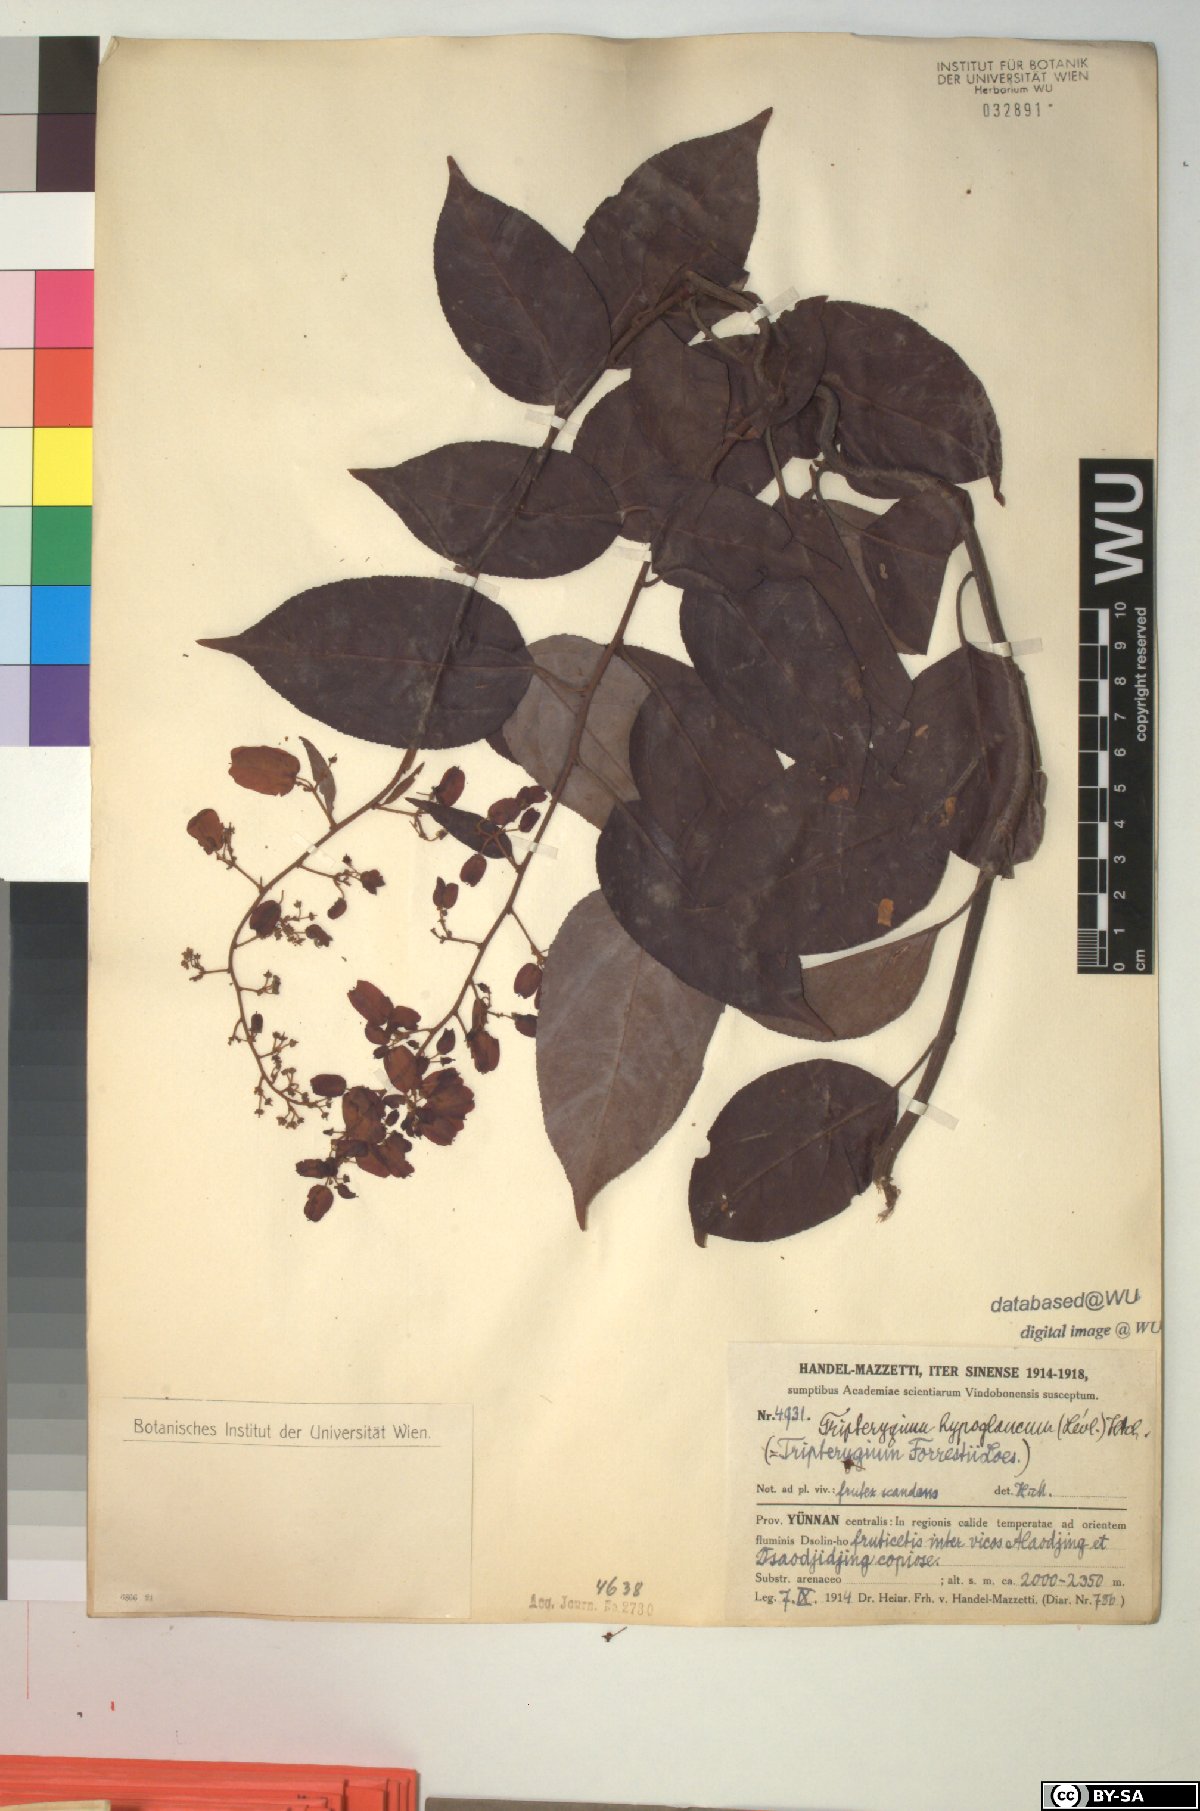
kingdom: Plantae
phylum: Tracheophyta
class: Magnoliopsida
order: Celastrales
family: Celastraceae
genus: Tripterygium
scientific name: Tripterygium wilfordii
